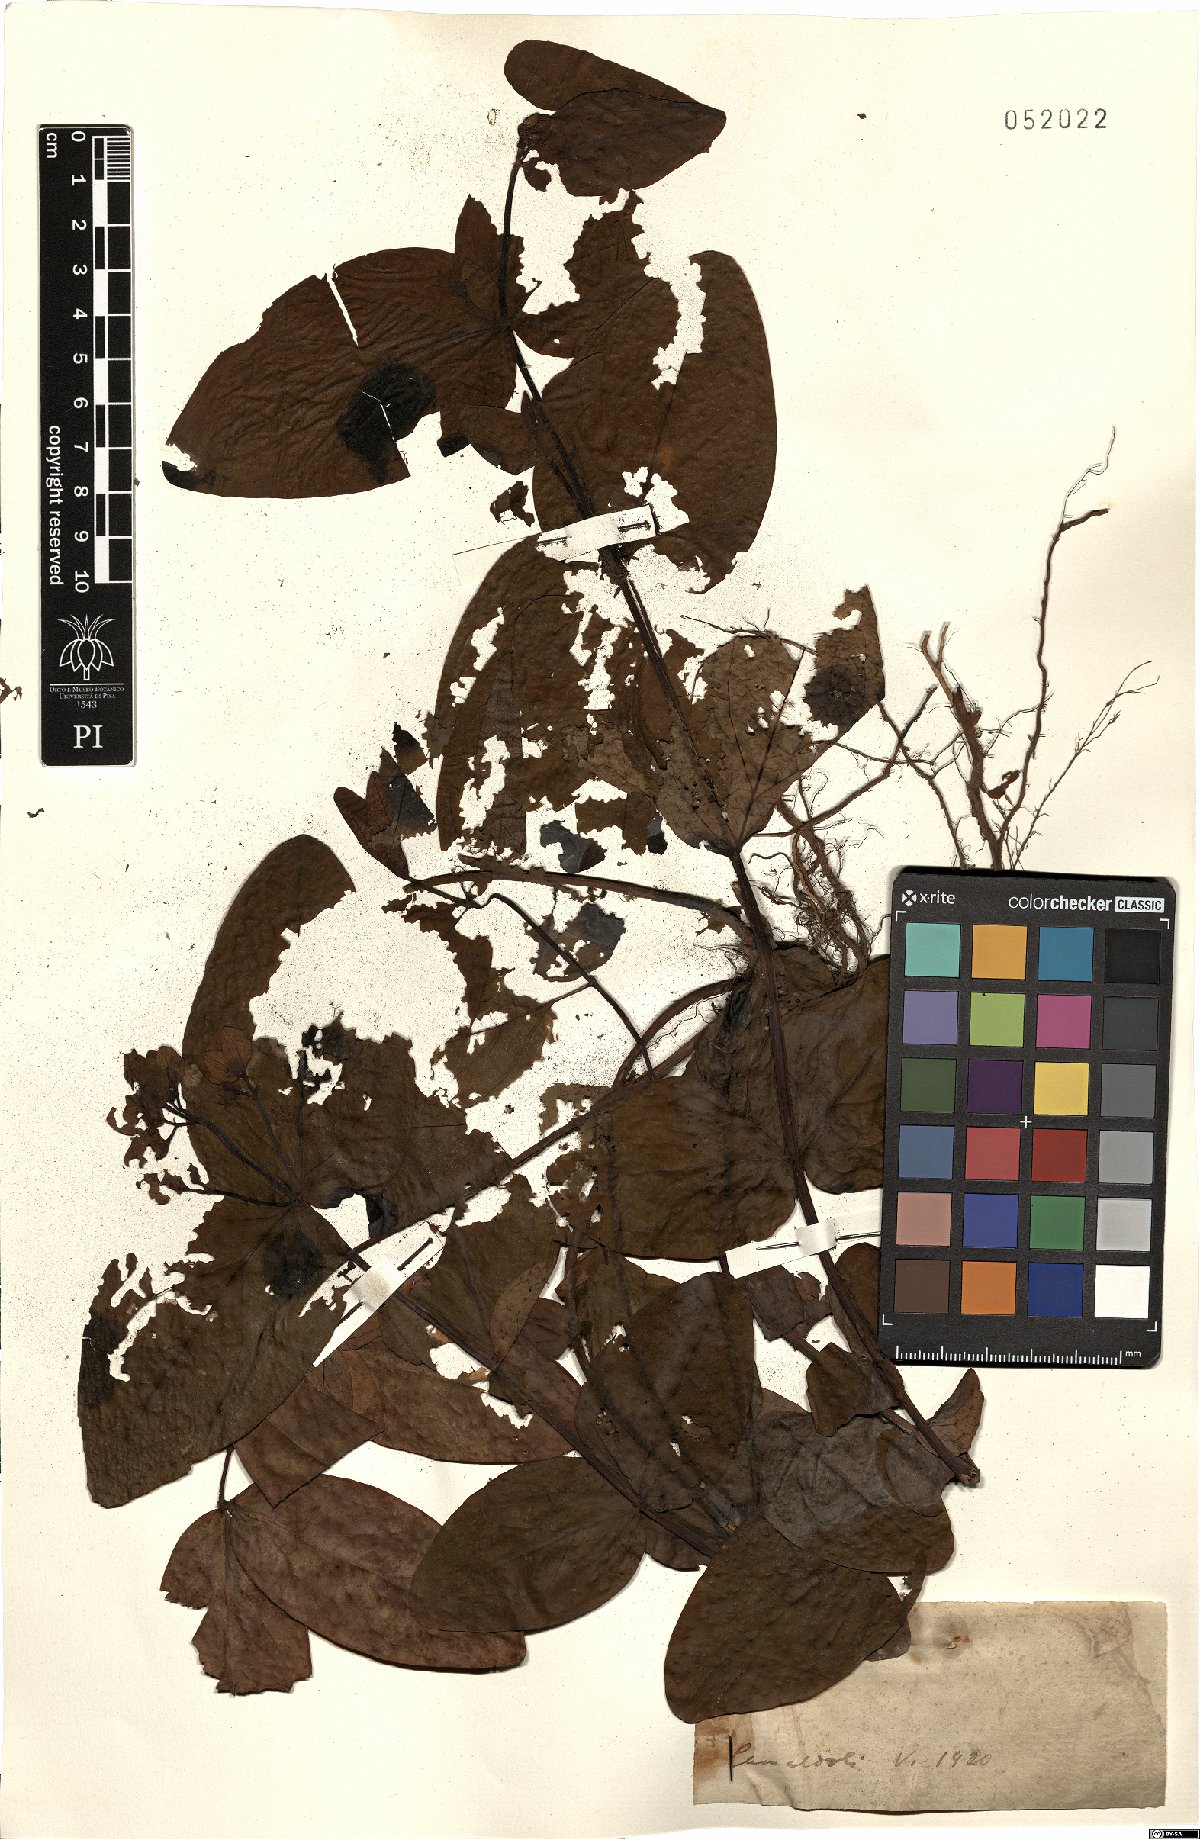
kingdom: Plantae
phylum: Tracheophyta
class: Magnoliopsida
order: Malpighiales
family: Hypericaceae
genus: Hypericum
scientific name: Hypericum
